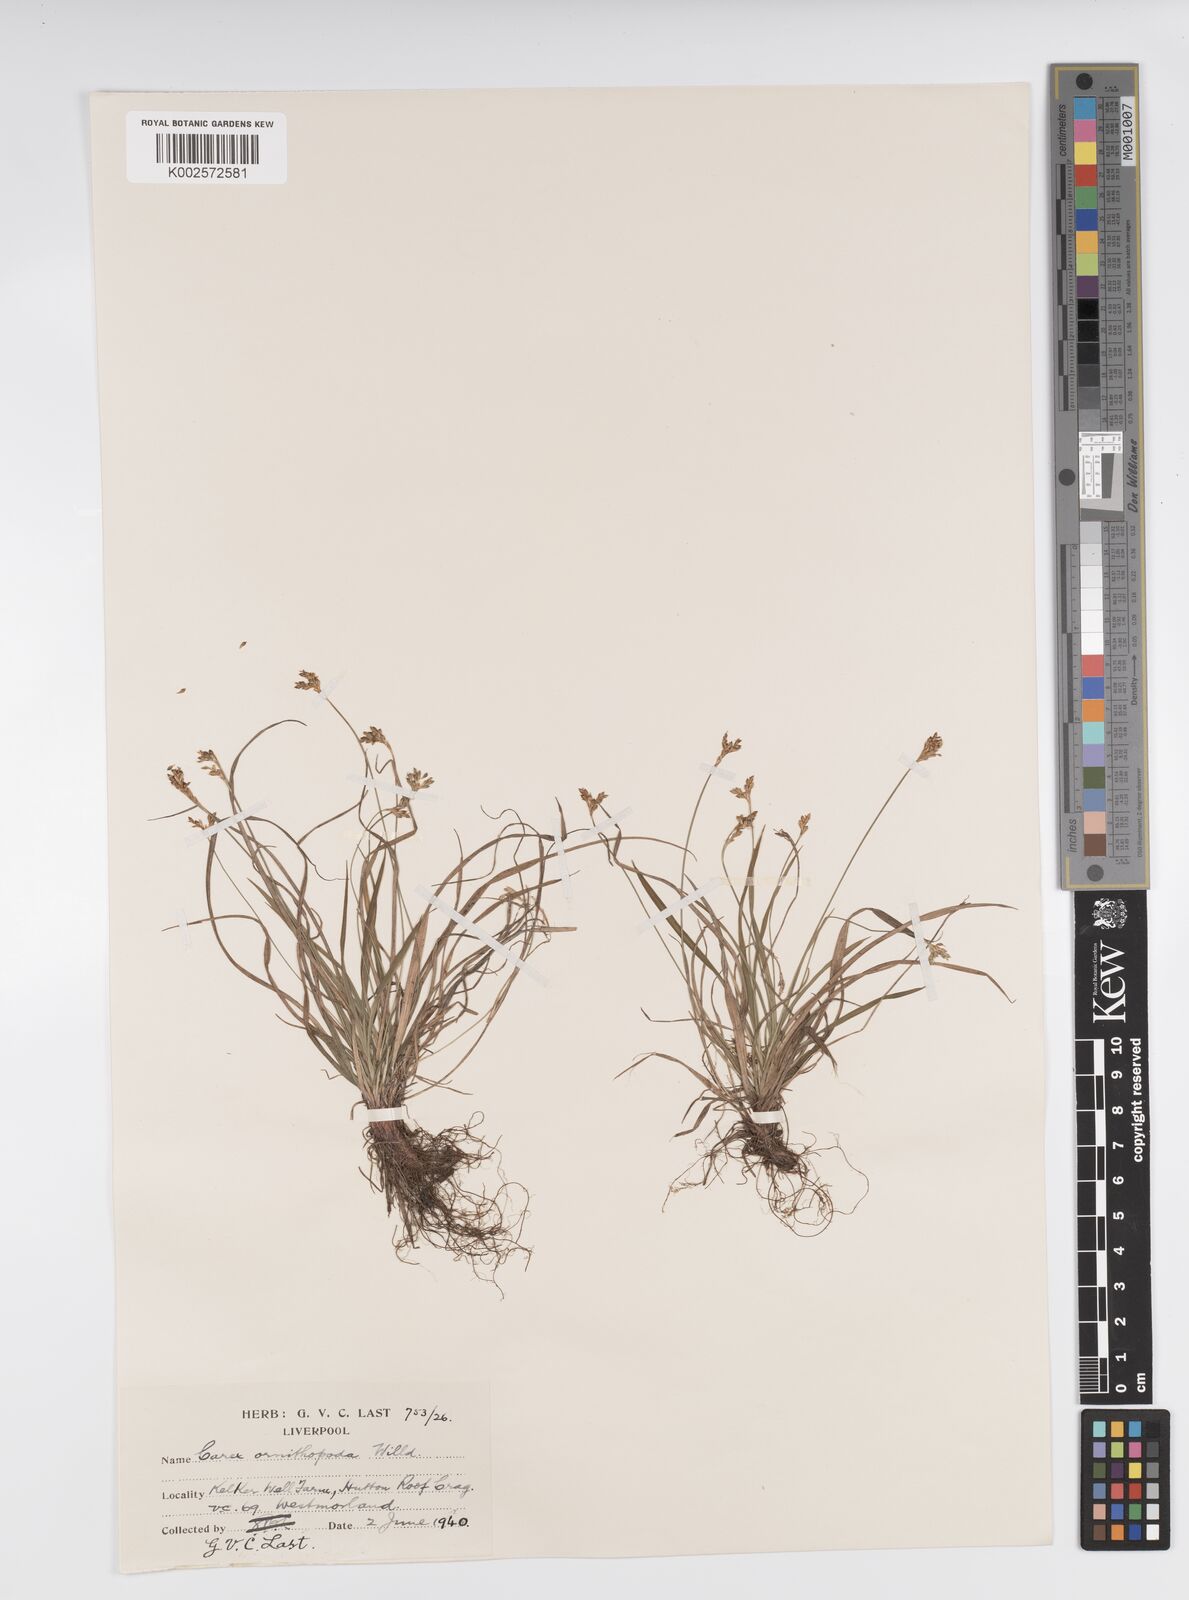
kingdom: Plantae
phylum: Tracheophyta
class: Liliopsida
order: Poales
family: Cyperaceae
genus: Carex
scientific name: Carex ornithopoda
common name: Bird's-foot sedge
